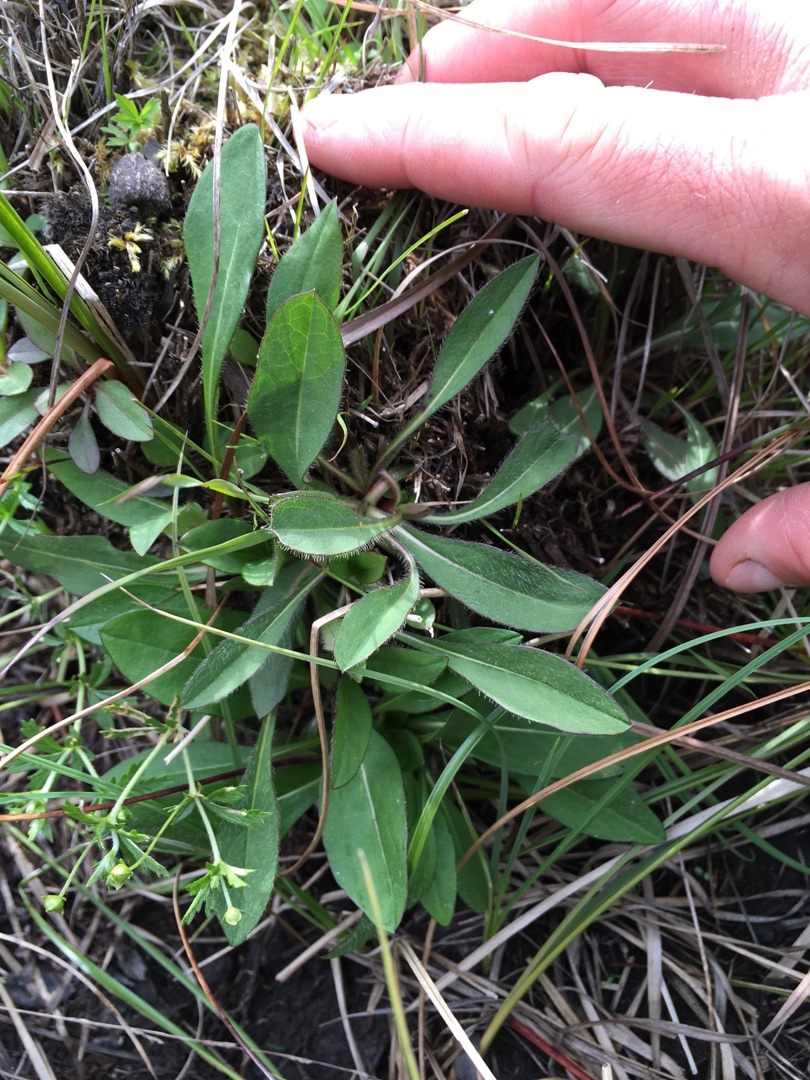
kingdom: Plantae
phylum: Tracheophyta
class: Magnoliopsida
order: Dipsacales
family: Caprifoliaceae
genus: Succisa
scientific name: Succisa pratensis
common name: Djævelsbid
